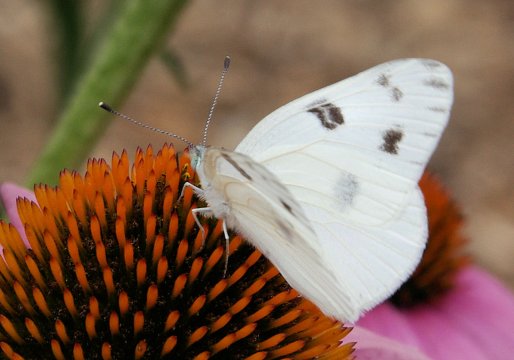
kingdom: Animalia
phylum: Arthropoda
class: Insecta
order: Lepidoptera
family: Pieridae
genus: Pontia
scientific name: Pontia protodice
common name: Checkered White
